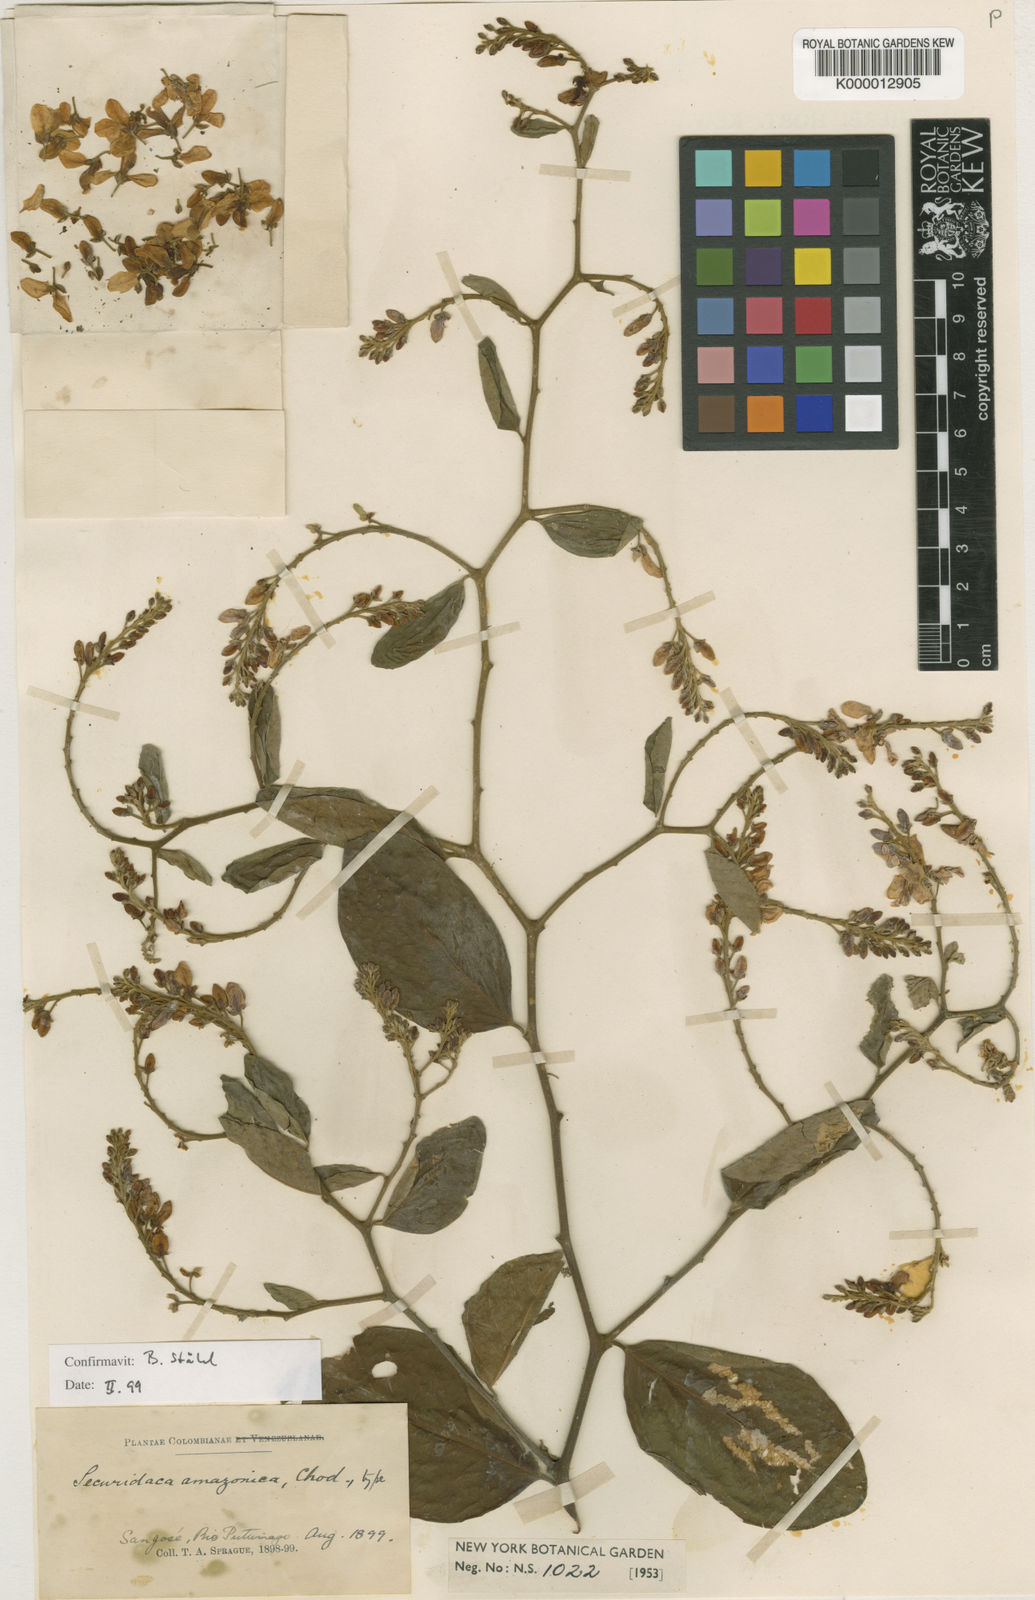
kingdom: Plantae
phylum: Tracheophyta
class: Magnoliopsida
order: Fabales
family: Polygalaceae
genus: Securidaca
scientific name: Securidaca amazonica
